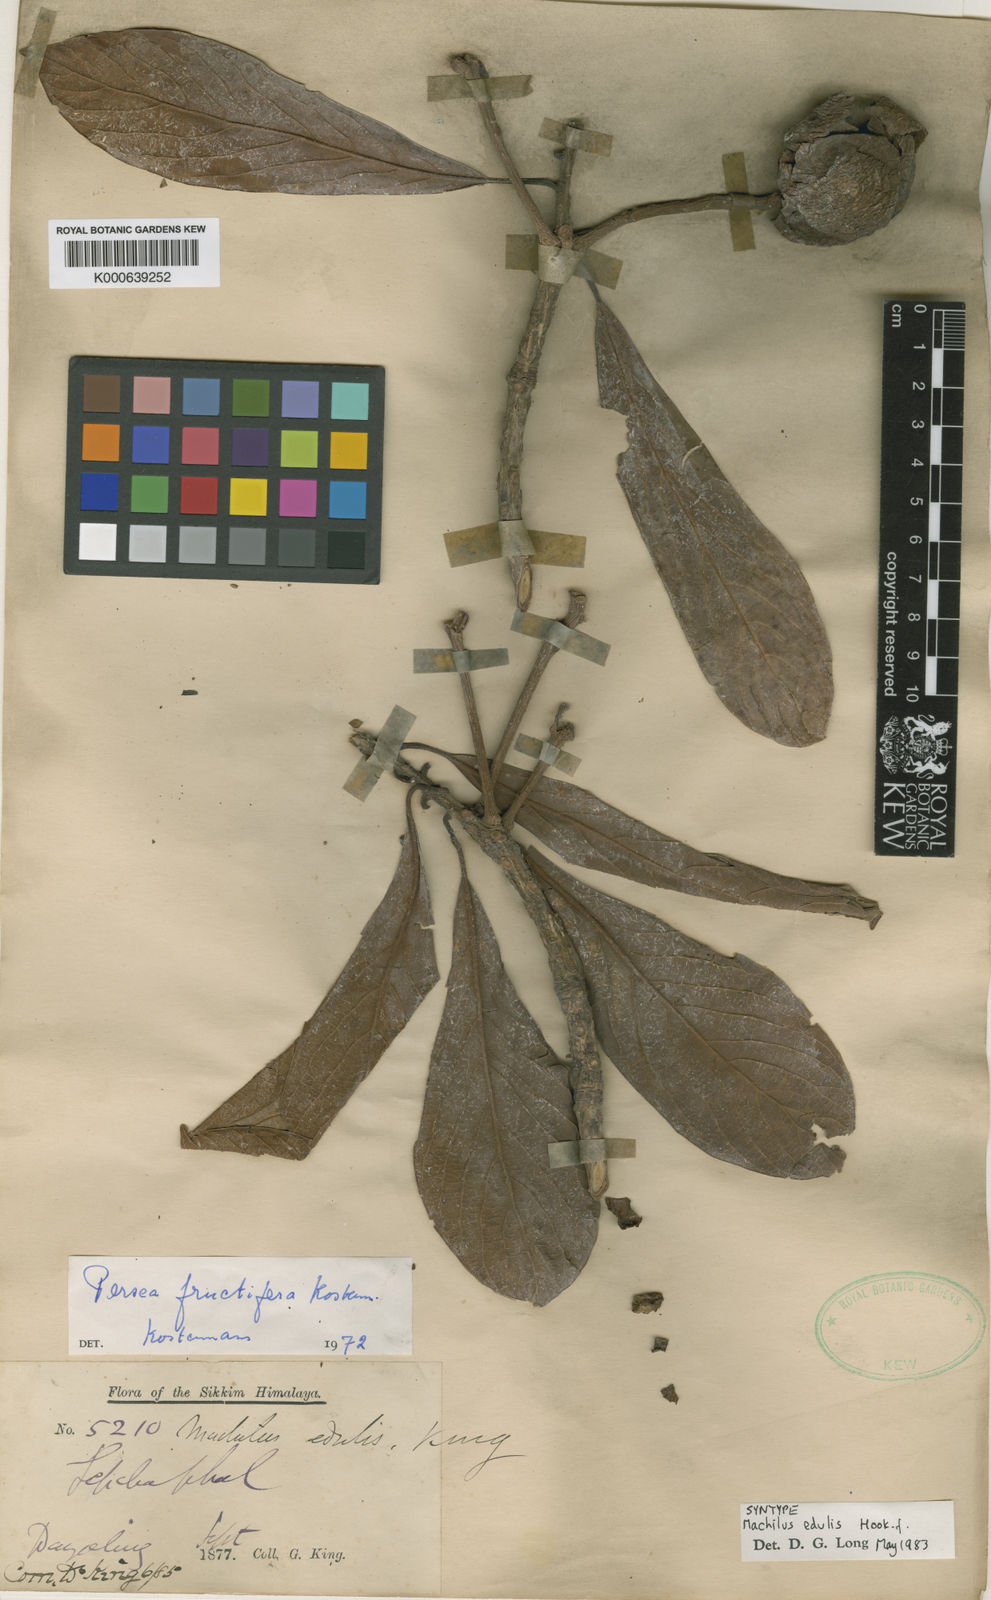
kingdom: Plantae
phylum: Tracheophyta
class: Magnoliopsida
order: Laurales
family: Lauraceae
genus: Machilus
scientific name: Machilus edulis
